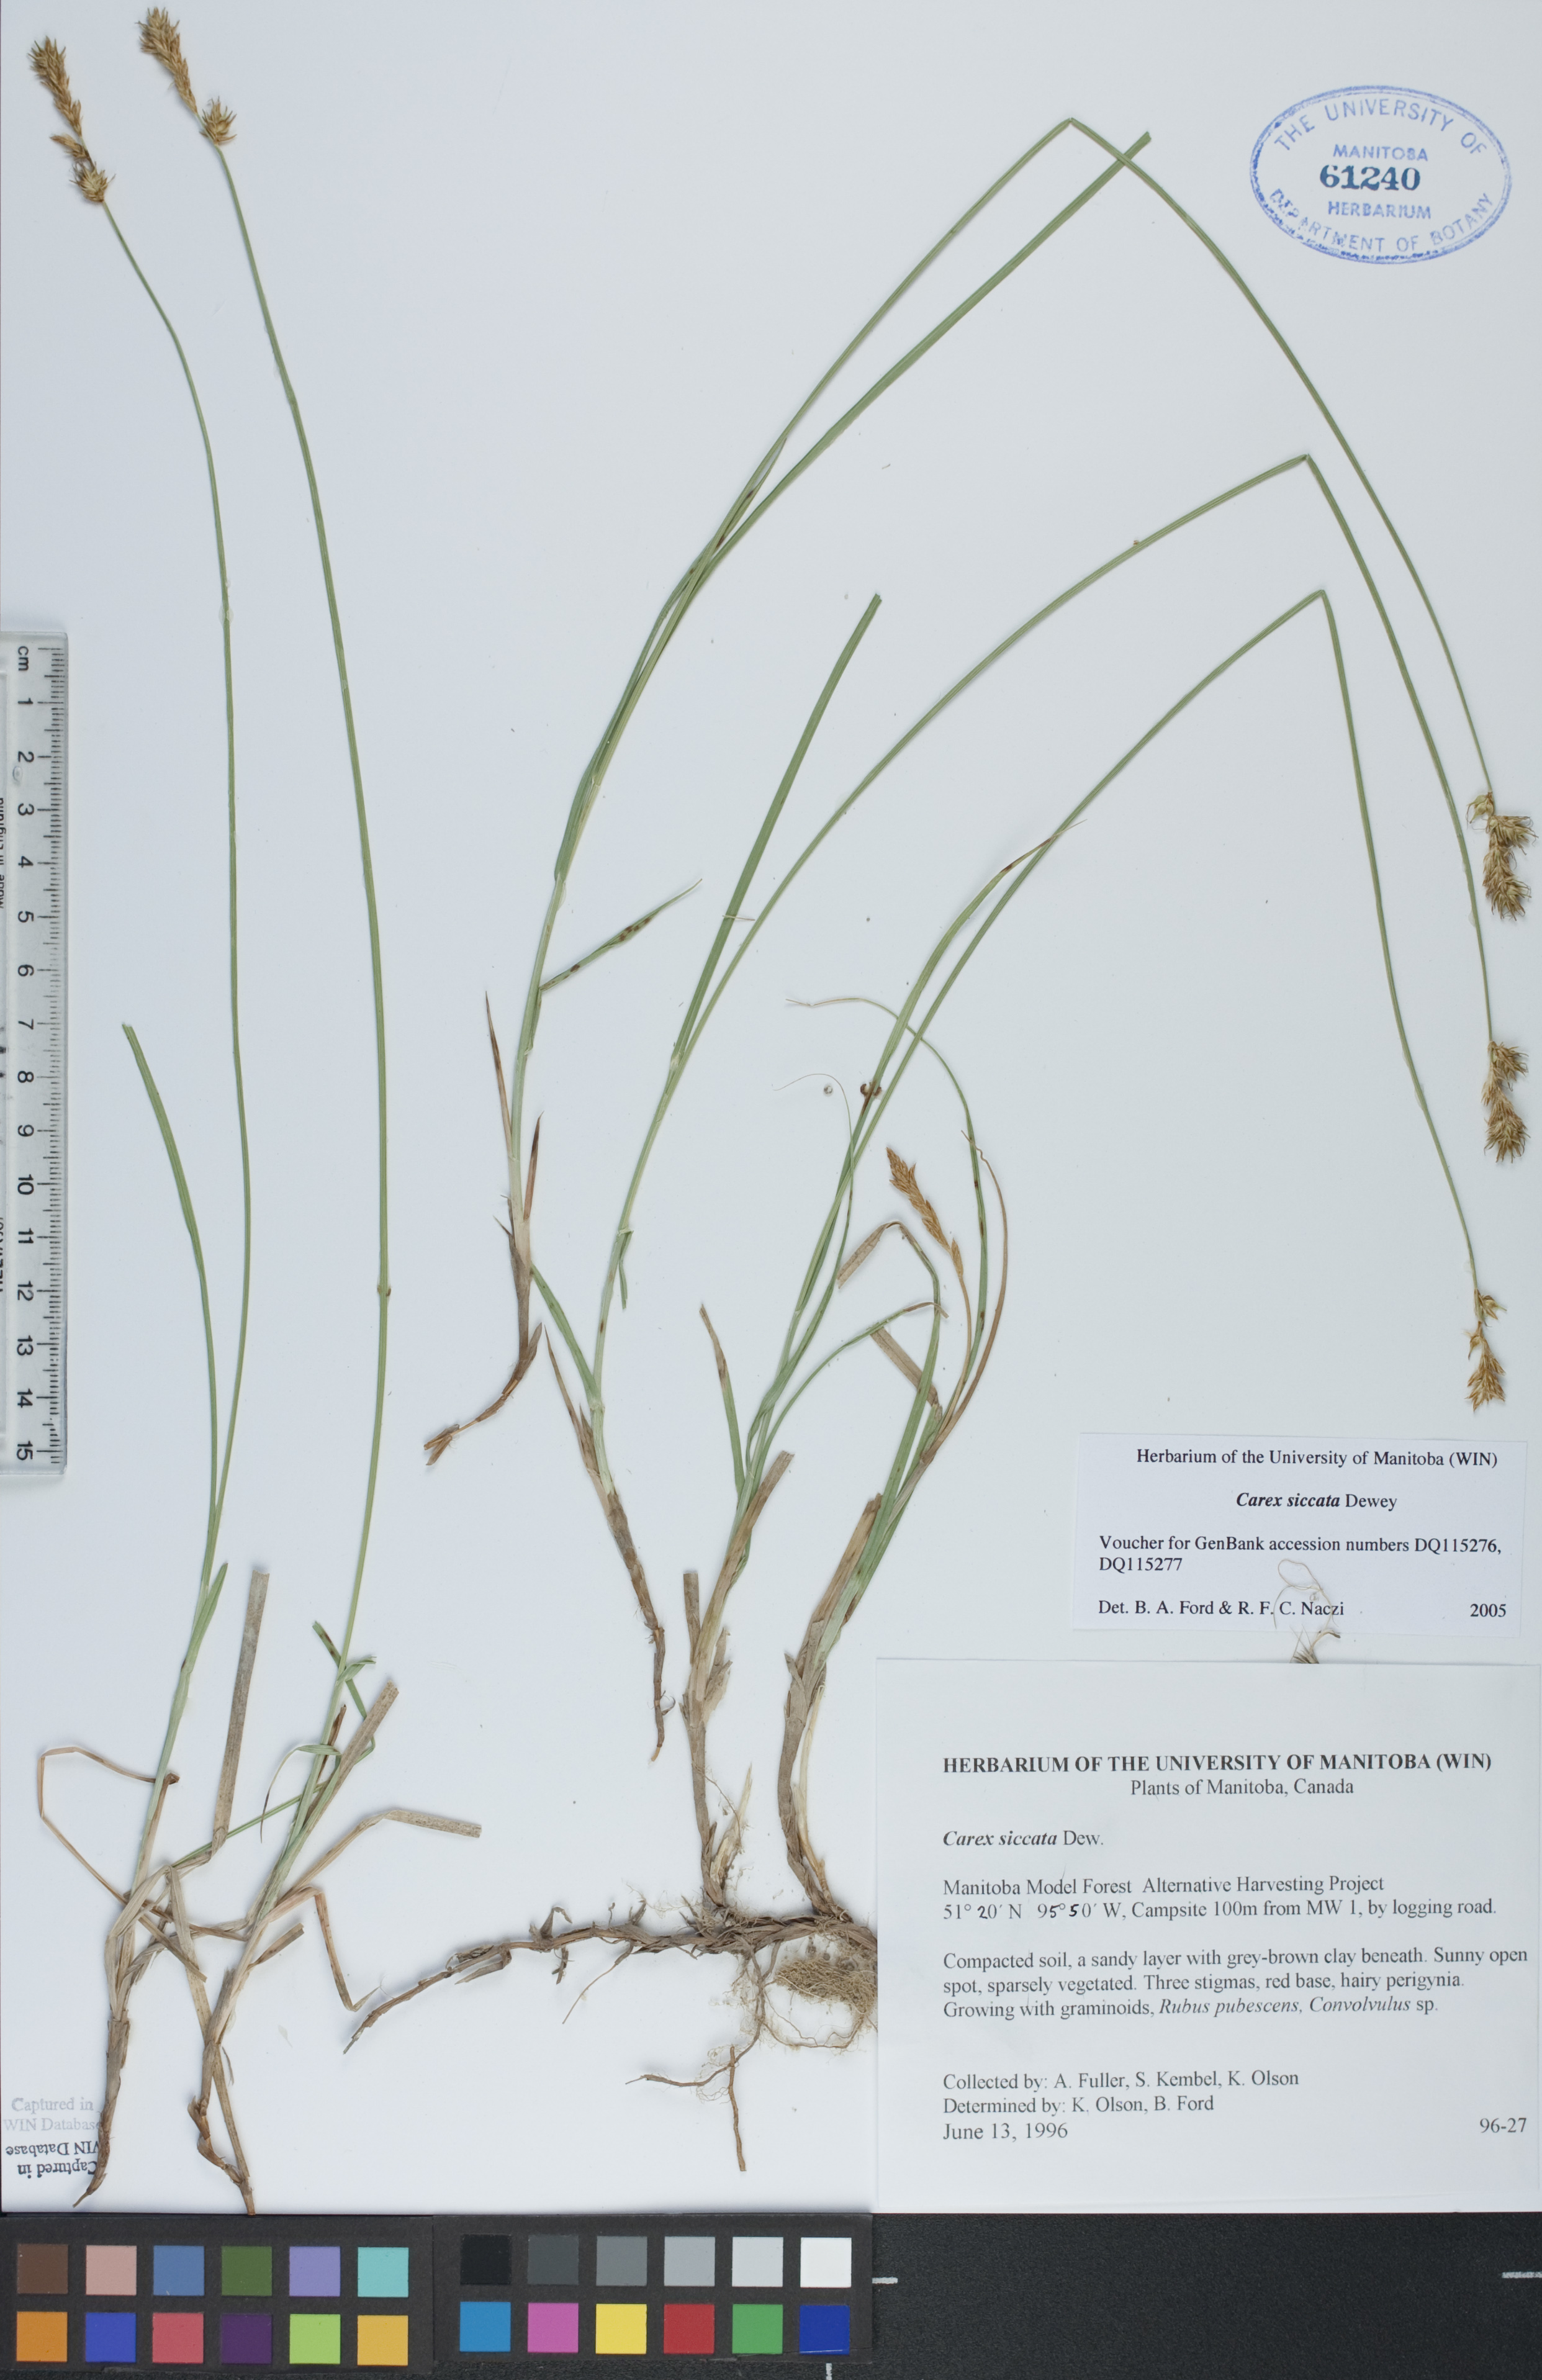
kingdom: Plantae
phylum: Tracheophyta
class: Liliopsida
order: Poales
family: Cyperaceae
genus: Carex
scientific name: Carex siccata
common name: Dry sedge
